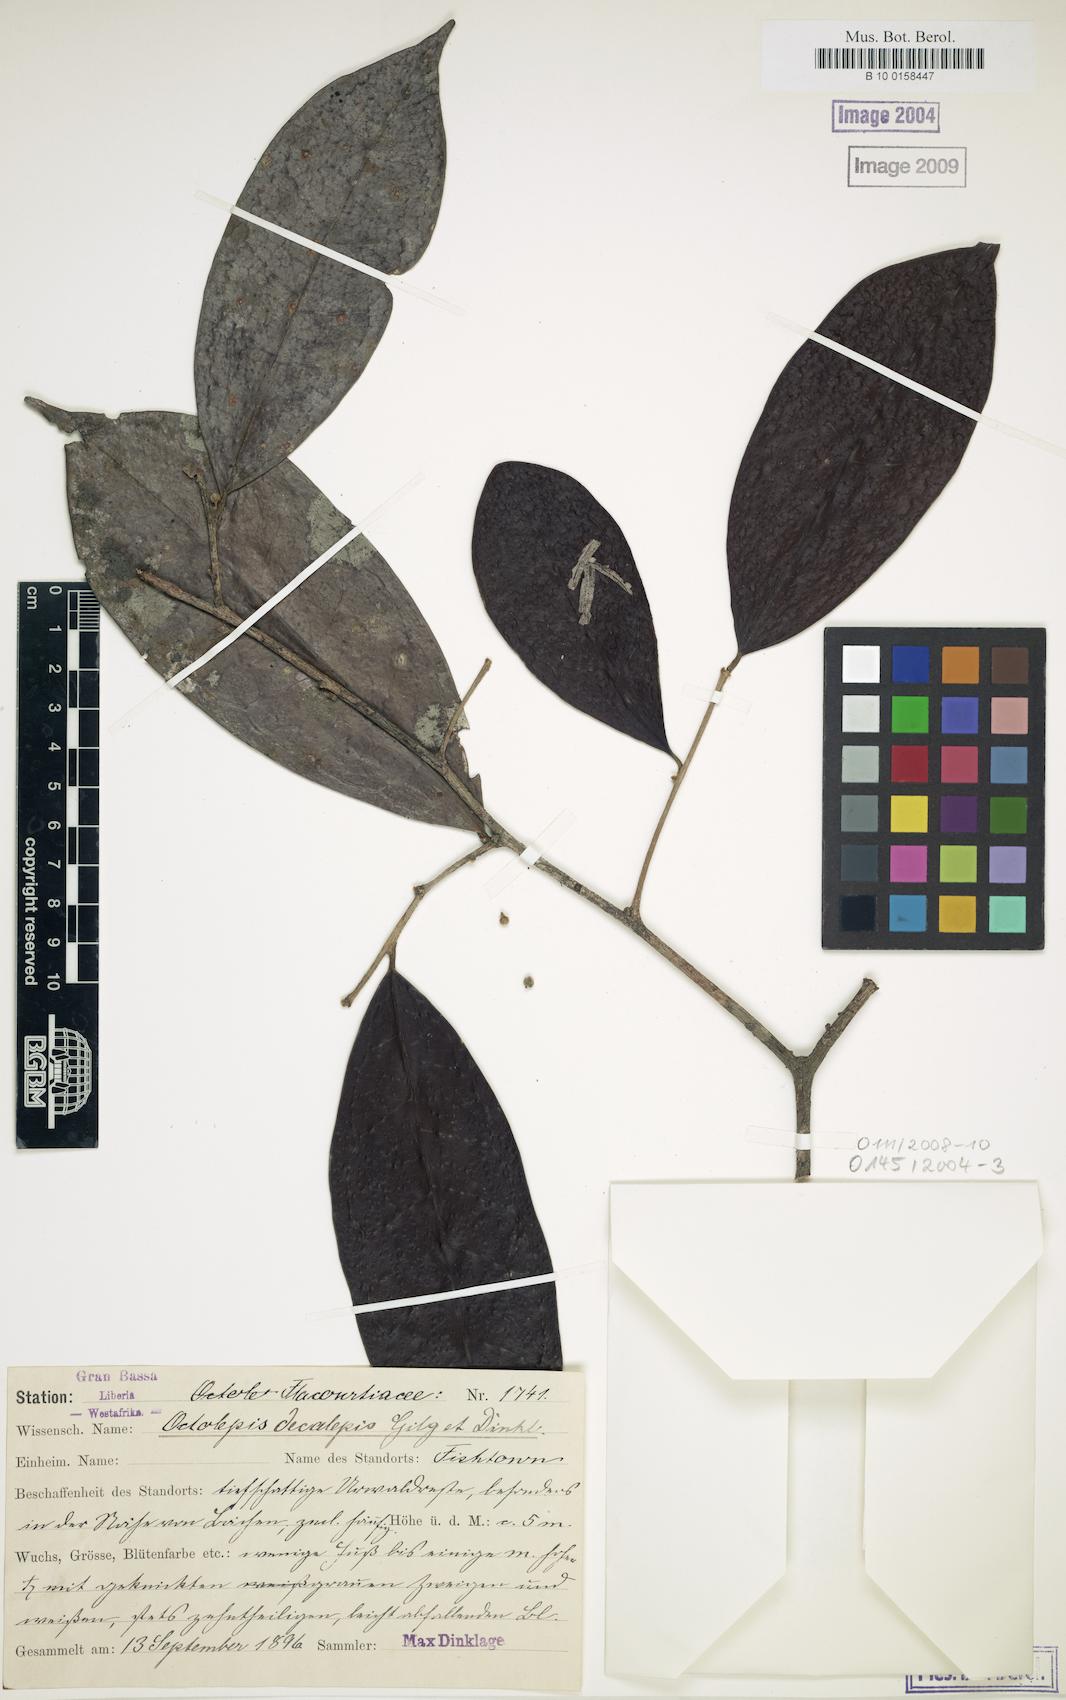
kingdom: Plantae
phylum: Tracheophyta
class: Magnoliopsida
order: Malvales
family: Thymelaeaceae
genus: Octolepis
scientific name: Octolepis decalepis
